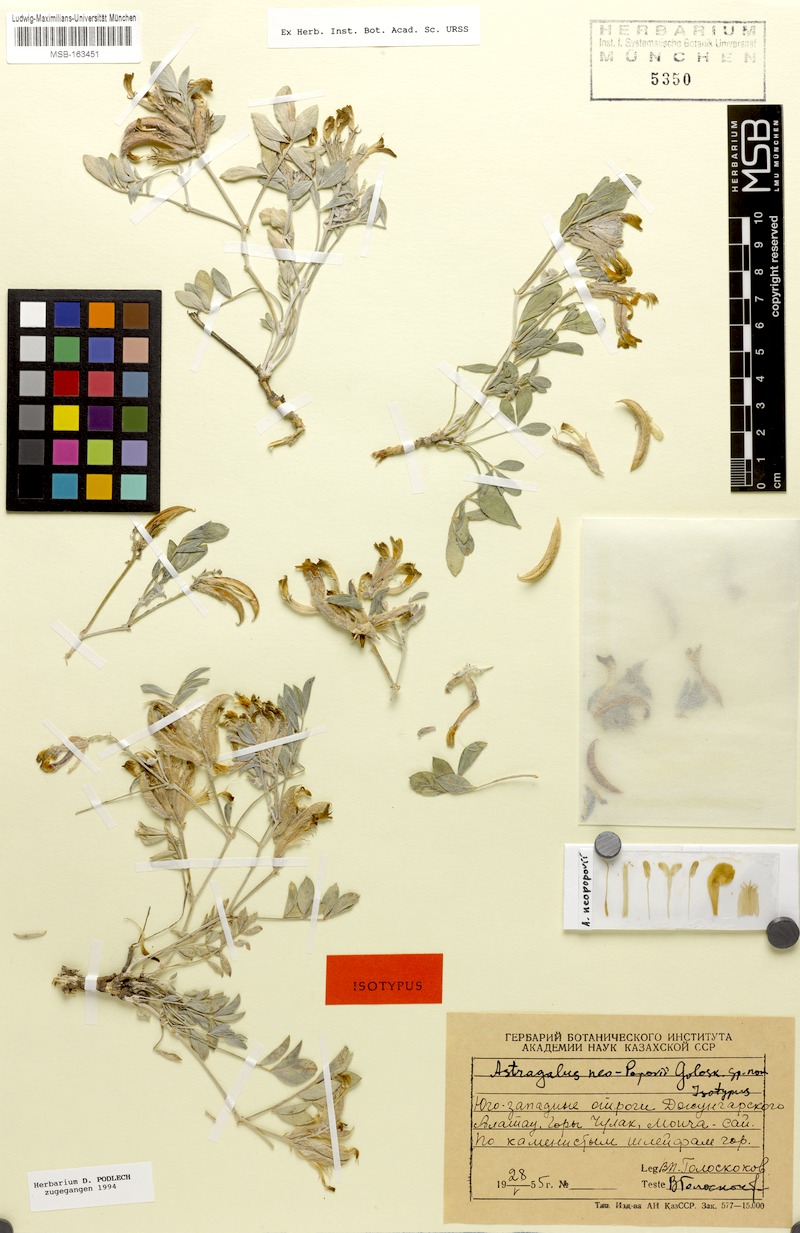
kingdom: Plantae
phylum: Tracheophyta
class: Magnoliopsida
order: Fabales
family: Fabaceae
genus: Astragalus
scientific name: Astragalus neopopovii
